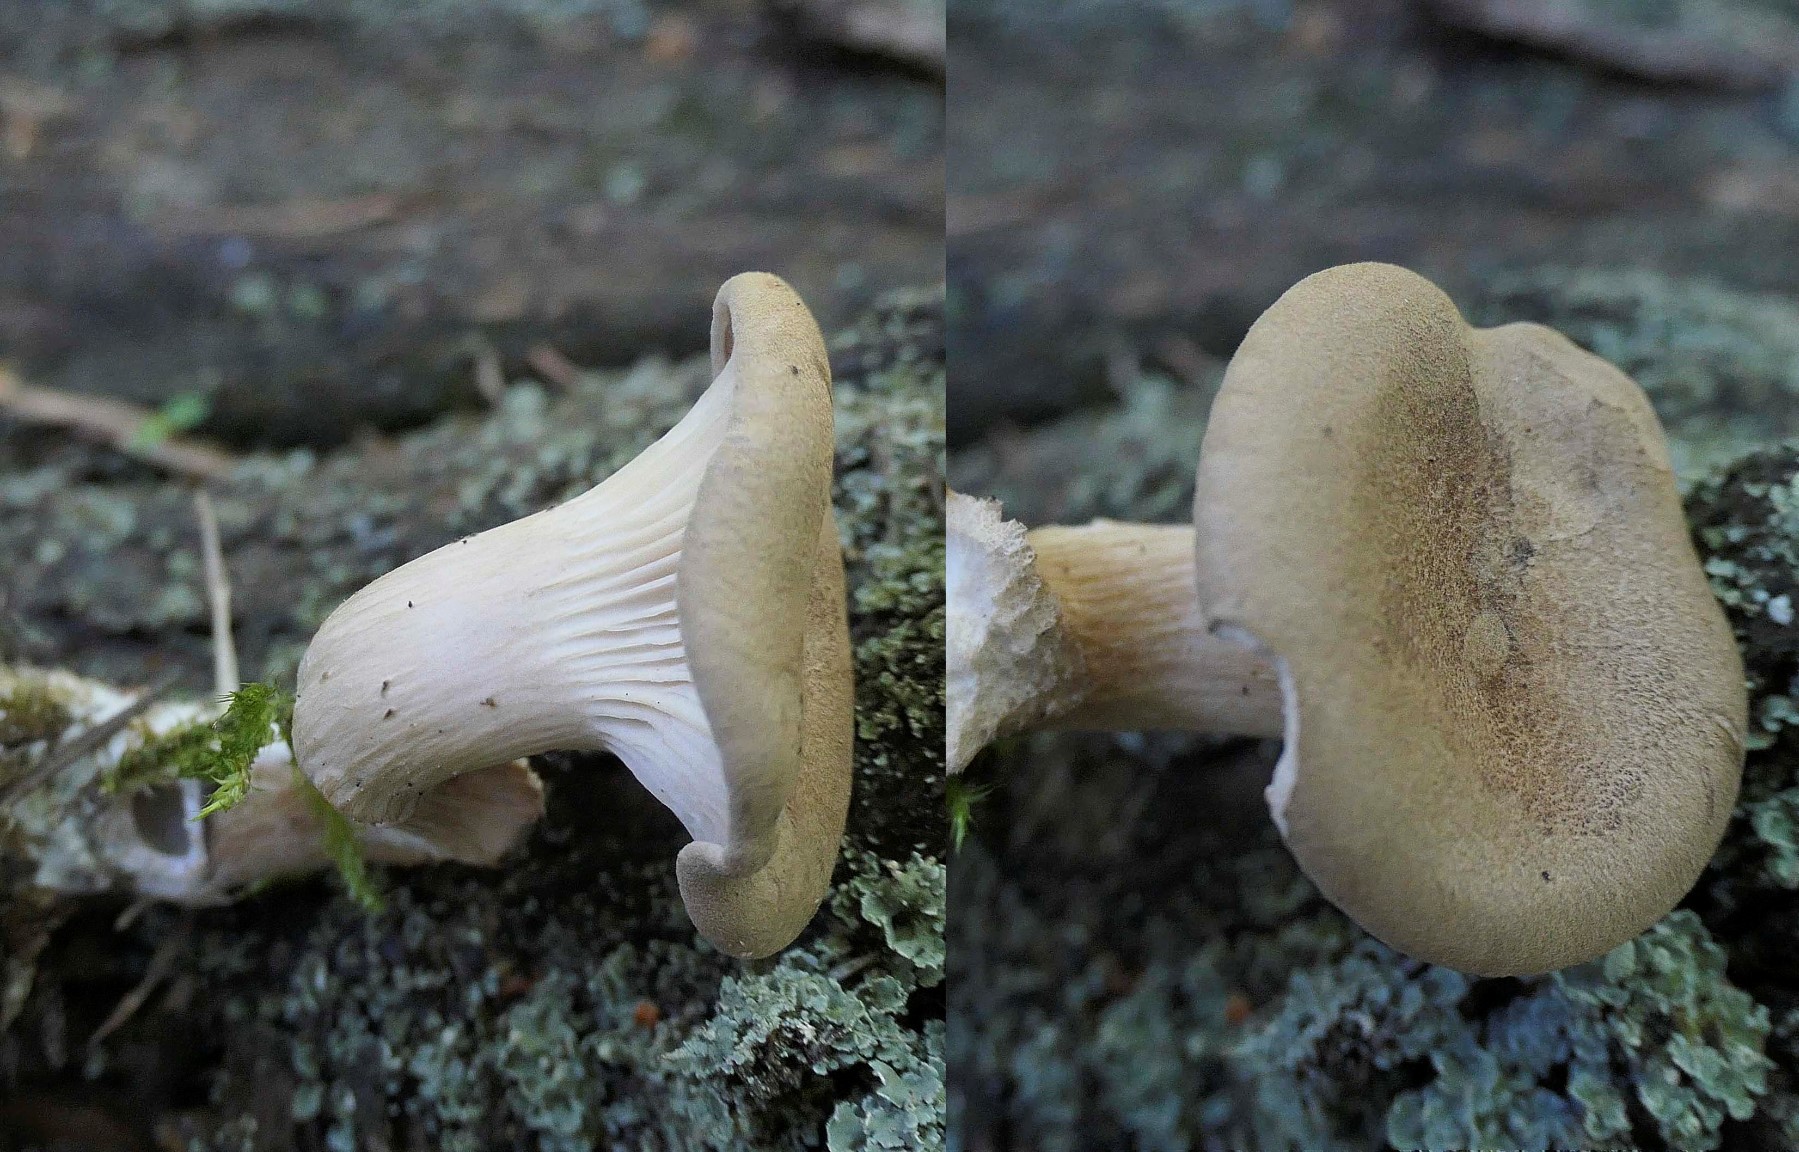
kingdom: Fungi
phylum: Basidiomycota
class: Agaricomycetes
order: Agaricales
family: Tricholomataceae
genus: Infundibulicybe
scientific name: Infundibulicybe squamulosa
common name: småskællet tragthat
